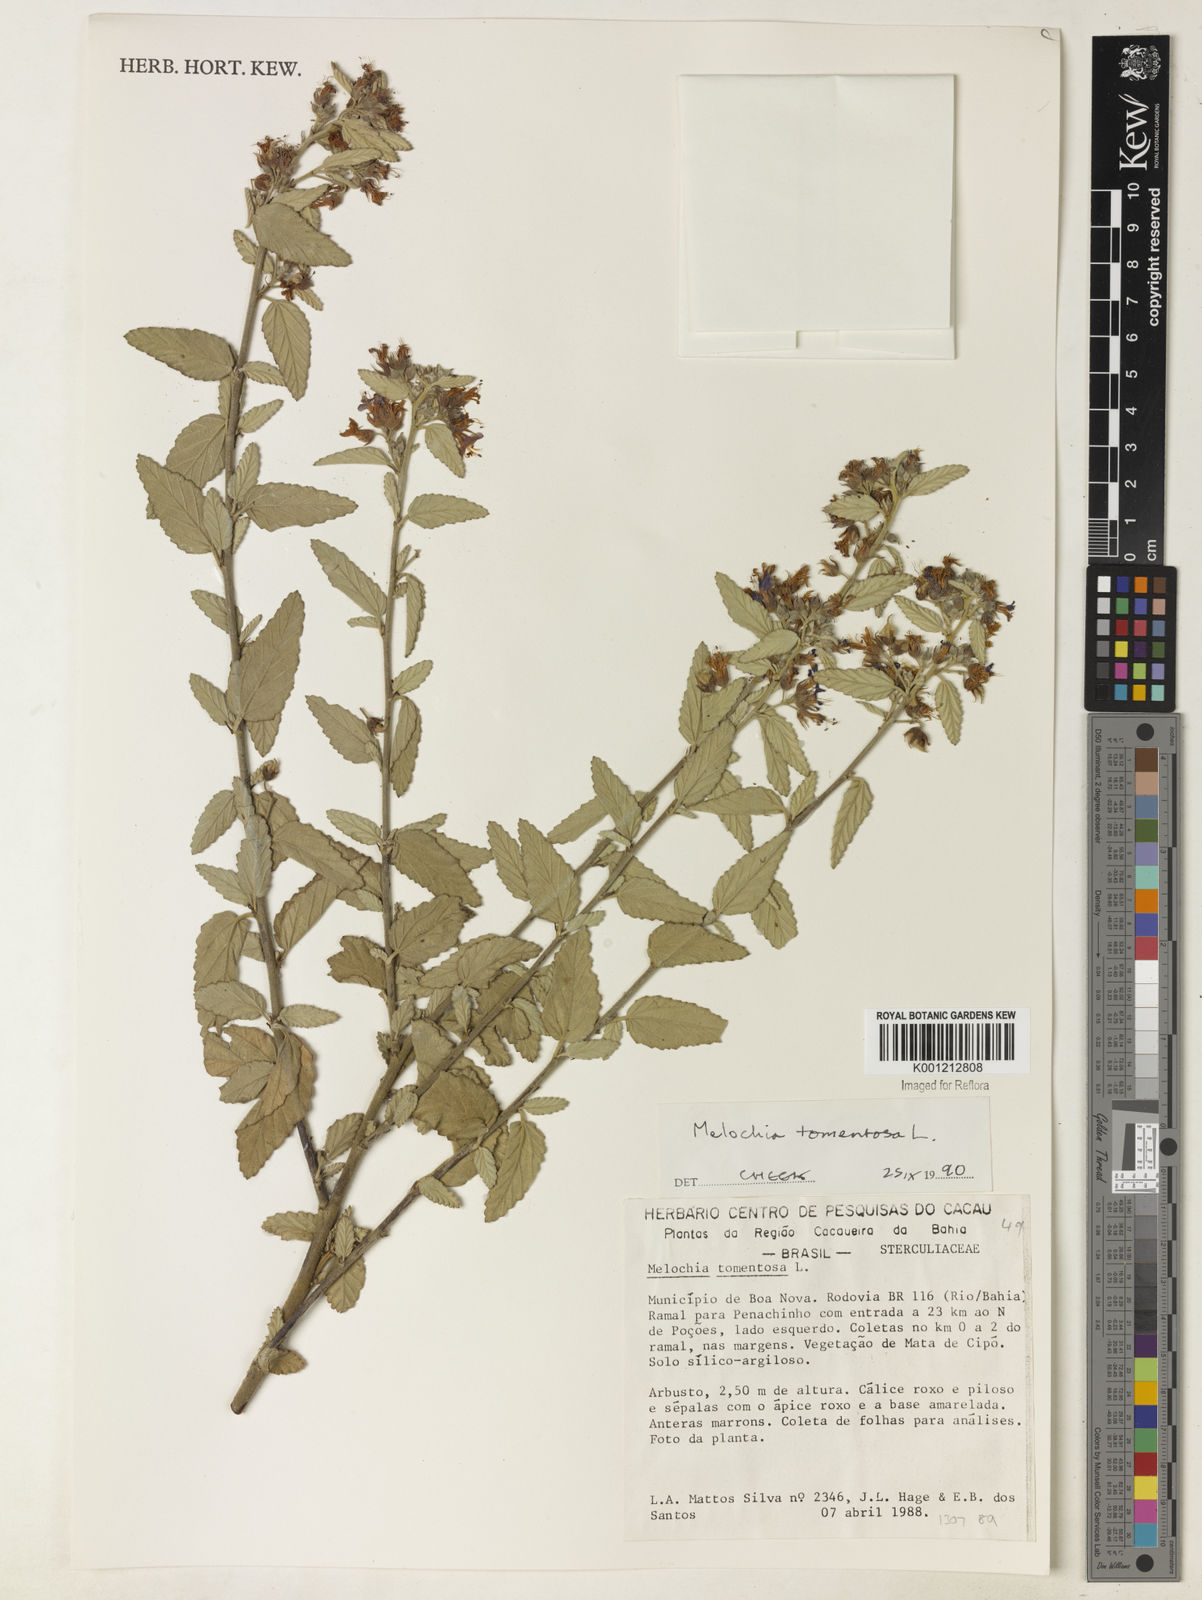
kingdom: Plantae
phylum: Tracheophyta
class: Magnoliopsida
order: Malvales
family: Malvaceae
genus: Melochia
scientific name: Melochia tomentosa
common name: Black torch
